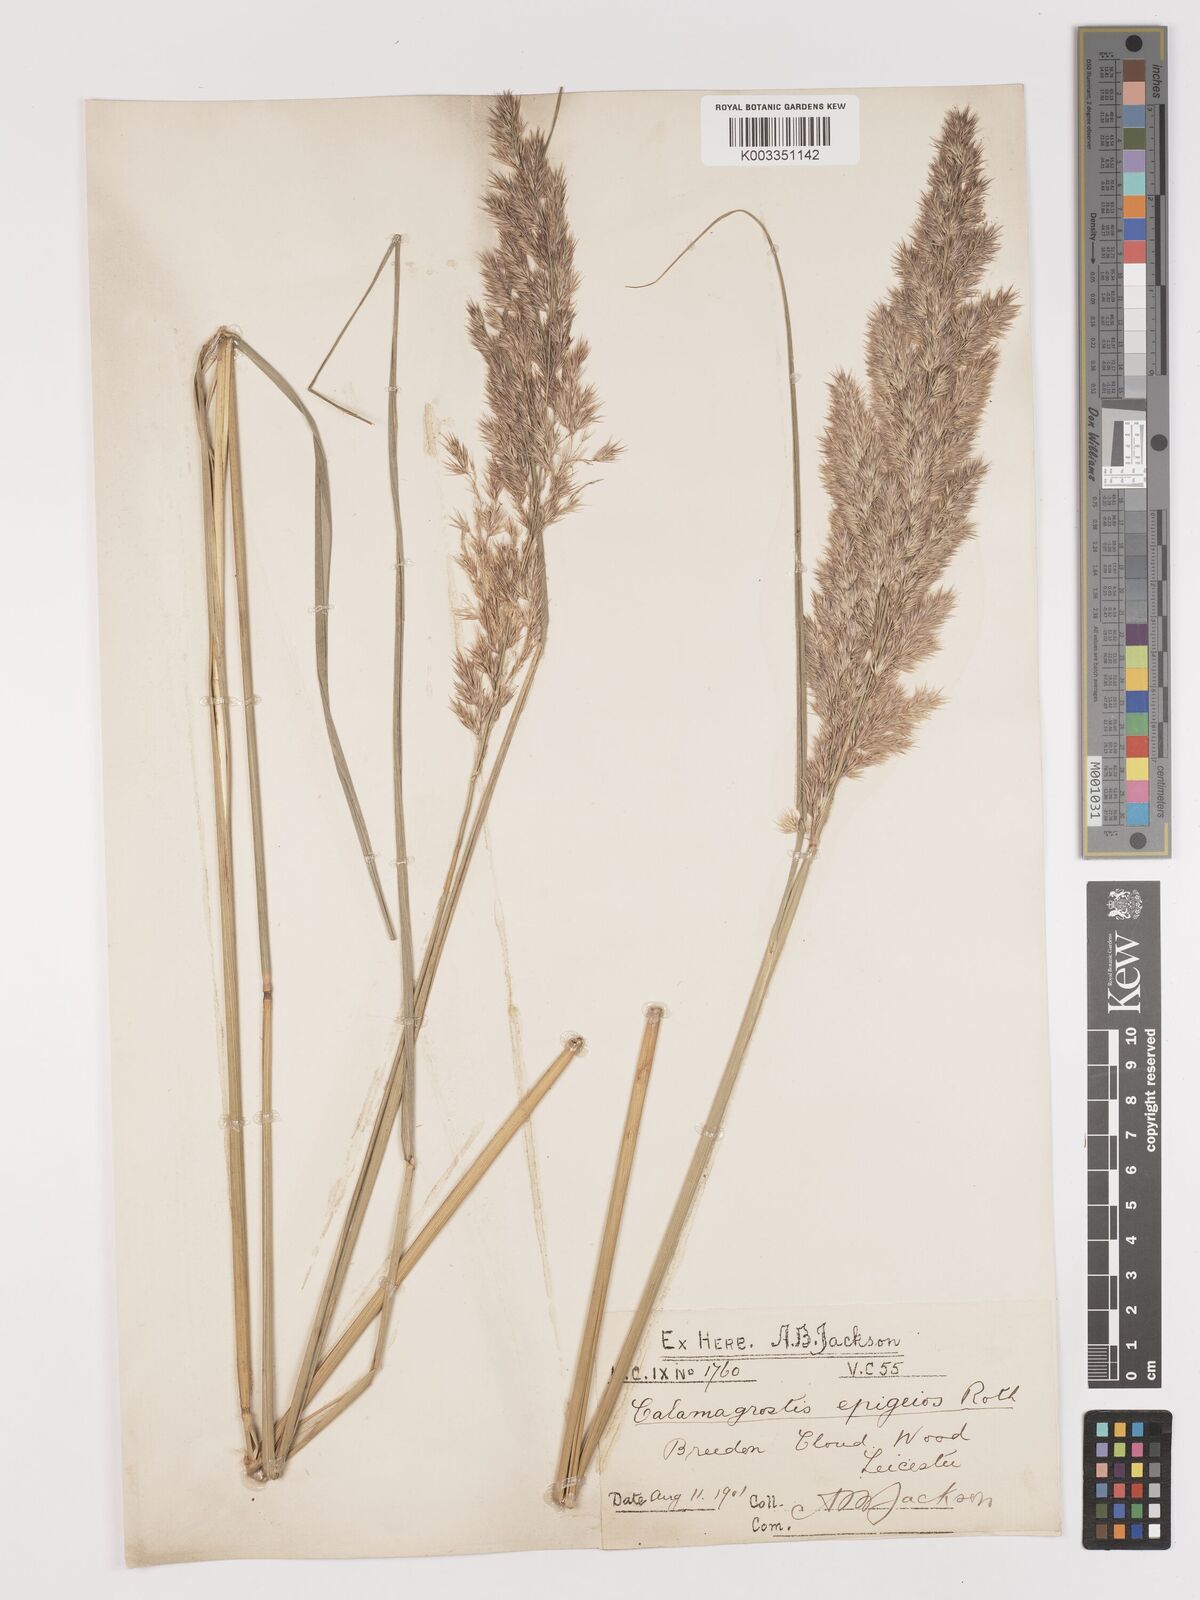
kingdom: Plantae
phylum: Tracheophyta
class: Liliopsida
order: Poales
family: Poaceae
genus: Calamagrostis
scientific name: Calamagrostis
